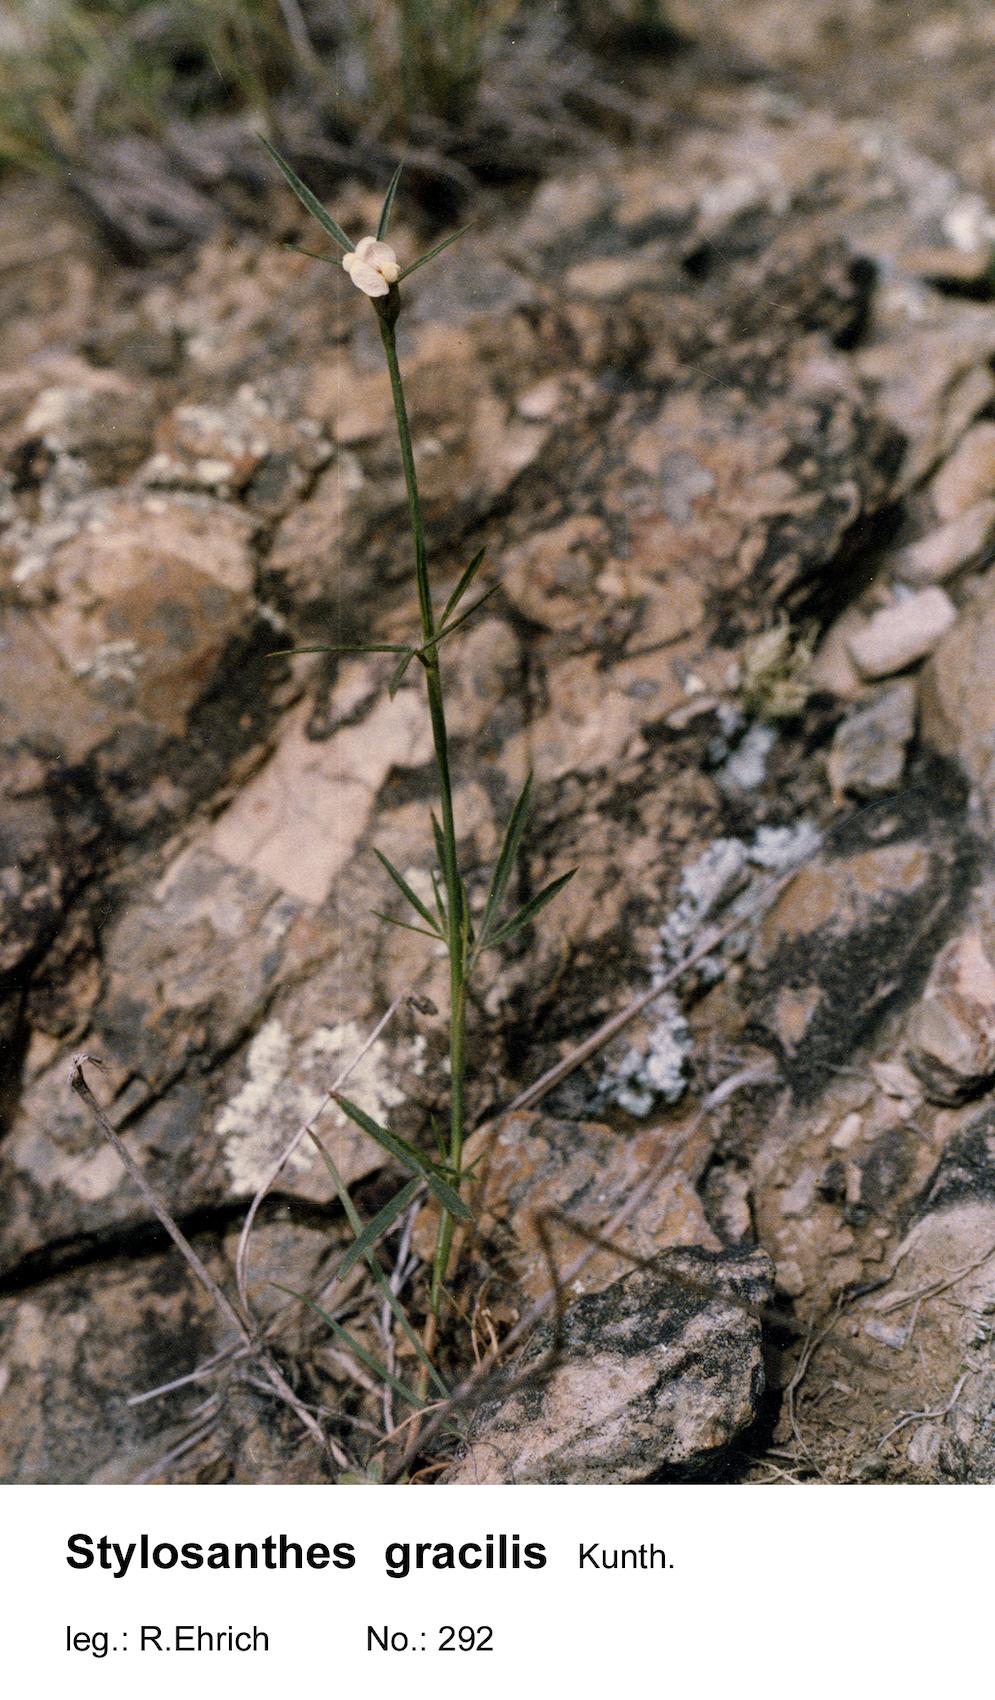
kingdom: Plantae
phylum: Tracheophyta
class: Magnoliopsida
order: Fabales
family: Fabaceae
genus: Stylosanthes
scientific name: Stylosanthes guianensis
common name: Pencil flower
